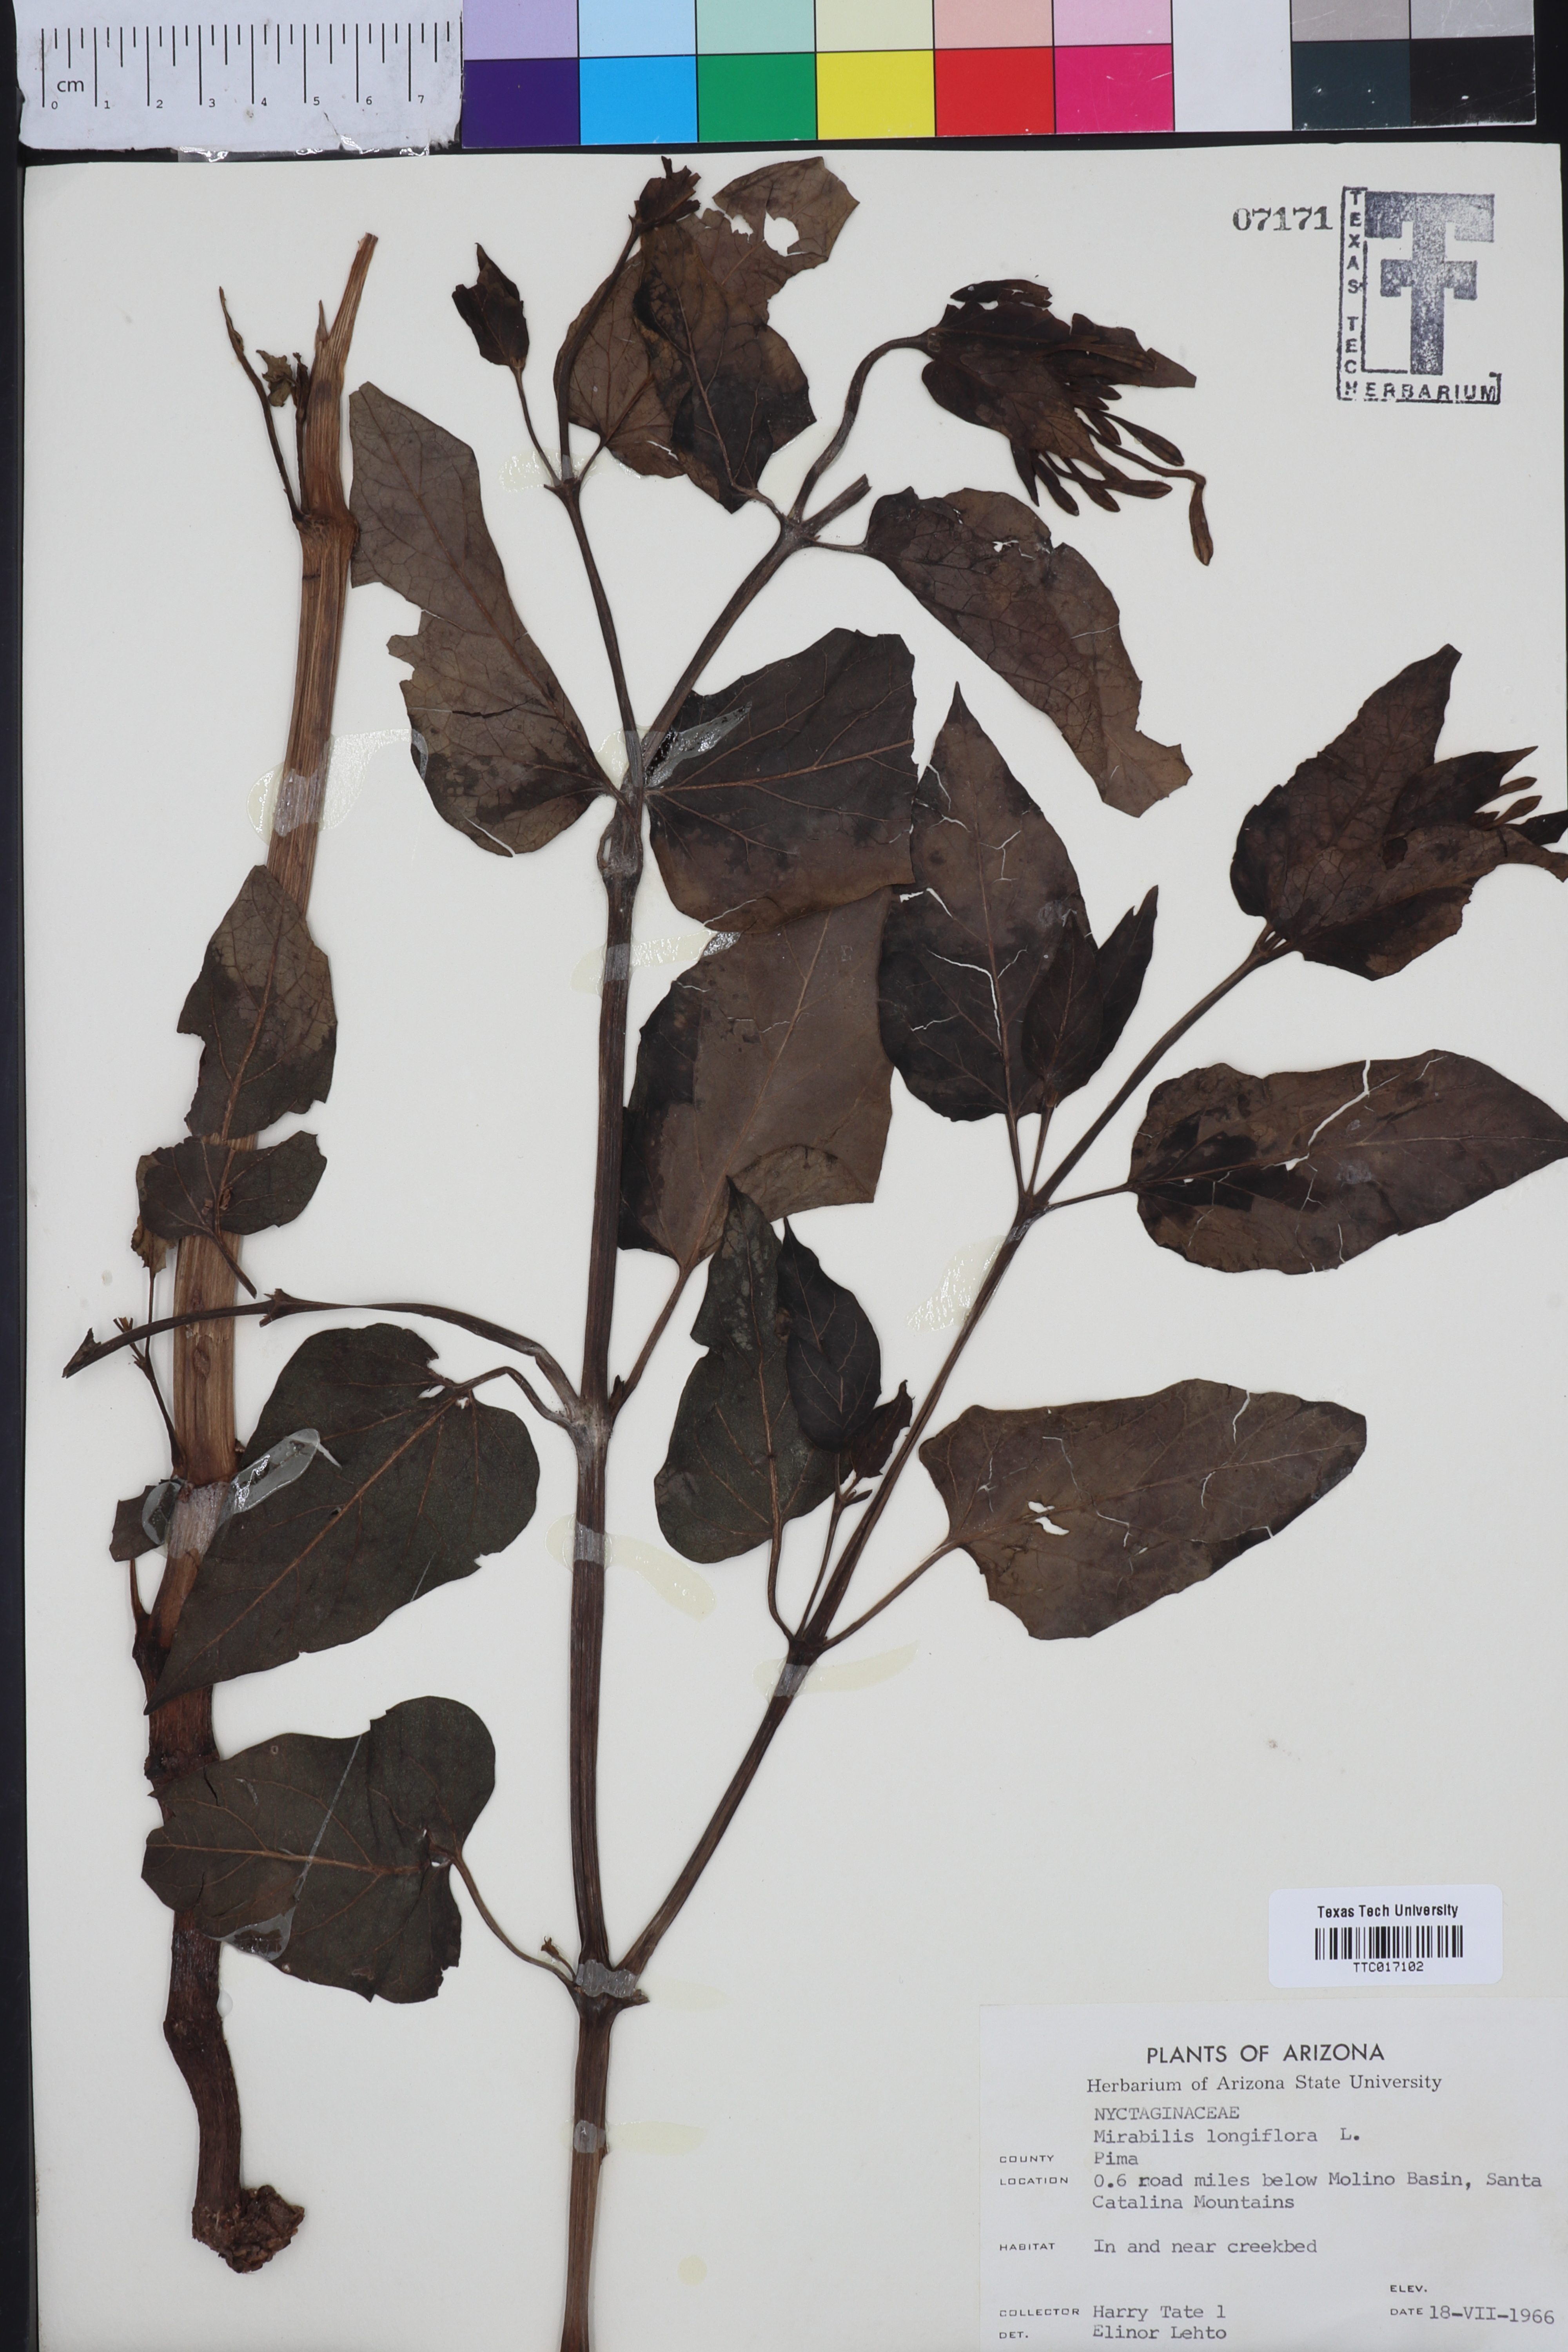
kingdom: Plantae
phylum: Tracheophyta
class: Magnoliopsida
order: Caryophyllales
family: Nyctaginaceae
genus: Mirabilis
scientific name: Mirabilis longiflora
